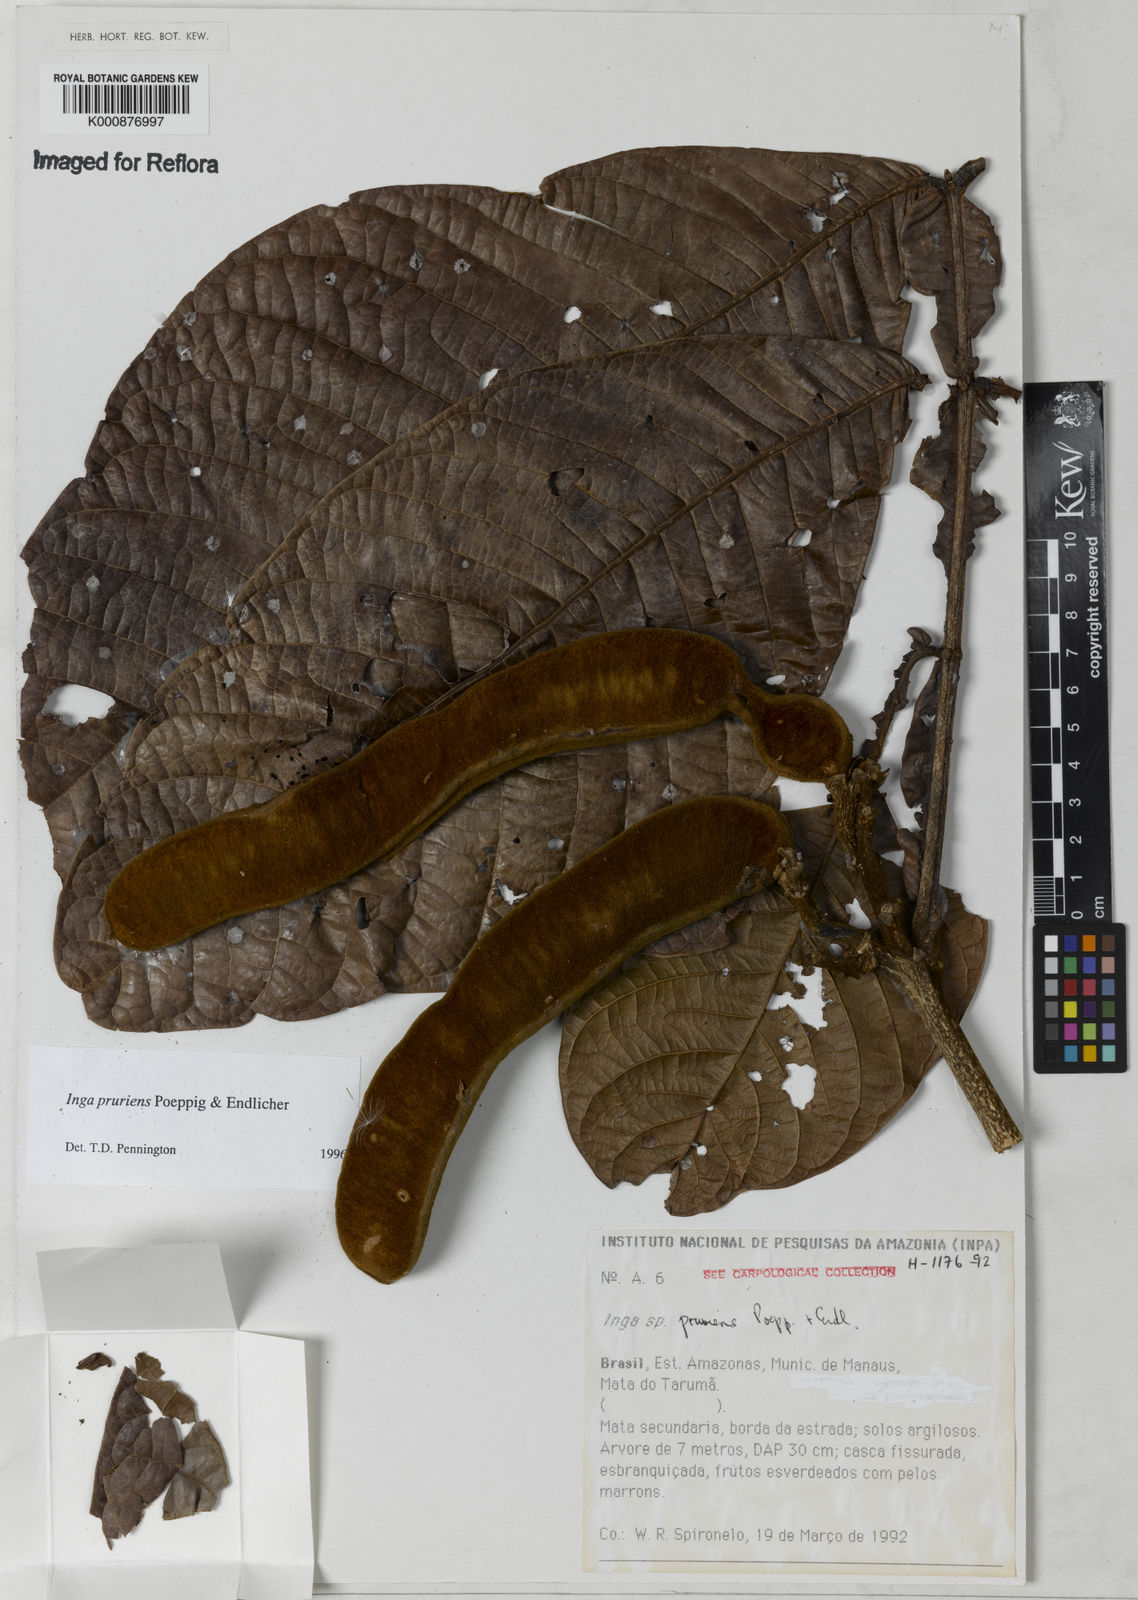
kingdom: Plantae
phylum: Tracheophyta
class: Magnoliopsida
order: Fabales
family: Fabaceae
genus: Inga
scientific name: Inga pruriens
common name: Howler monkey inga
